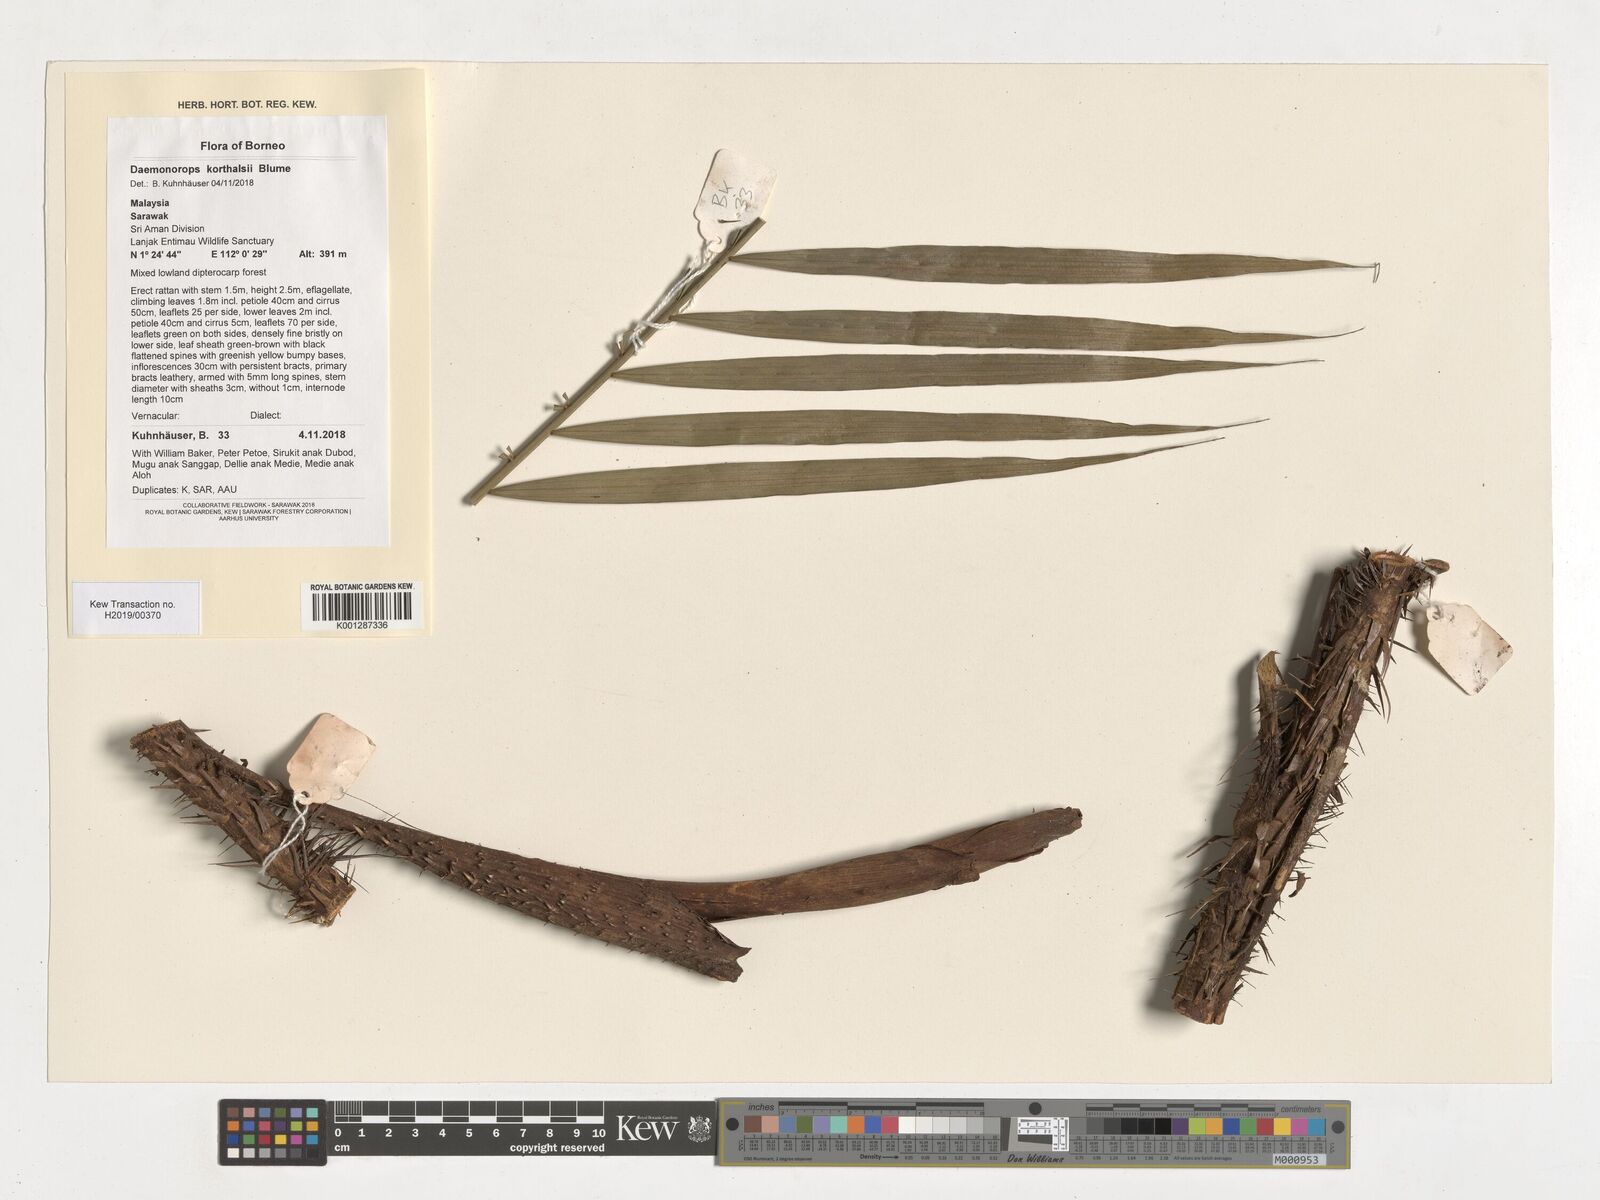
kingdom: Plantae
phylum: Tracheophyta
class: Liliopsida
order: Arecales
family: Arecaceae
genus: Calamus
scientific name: Calamus hirsutus
